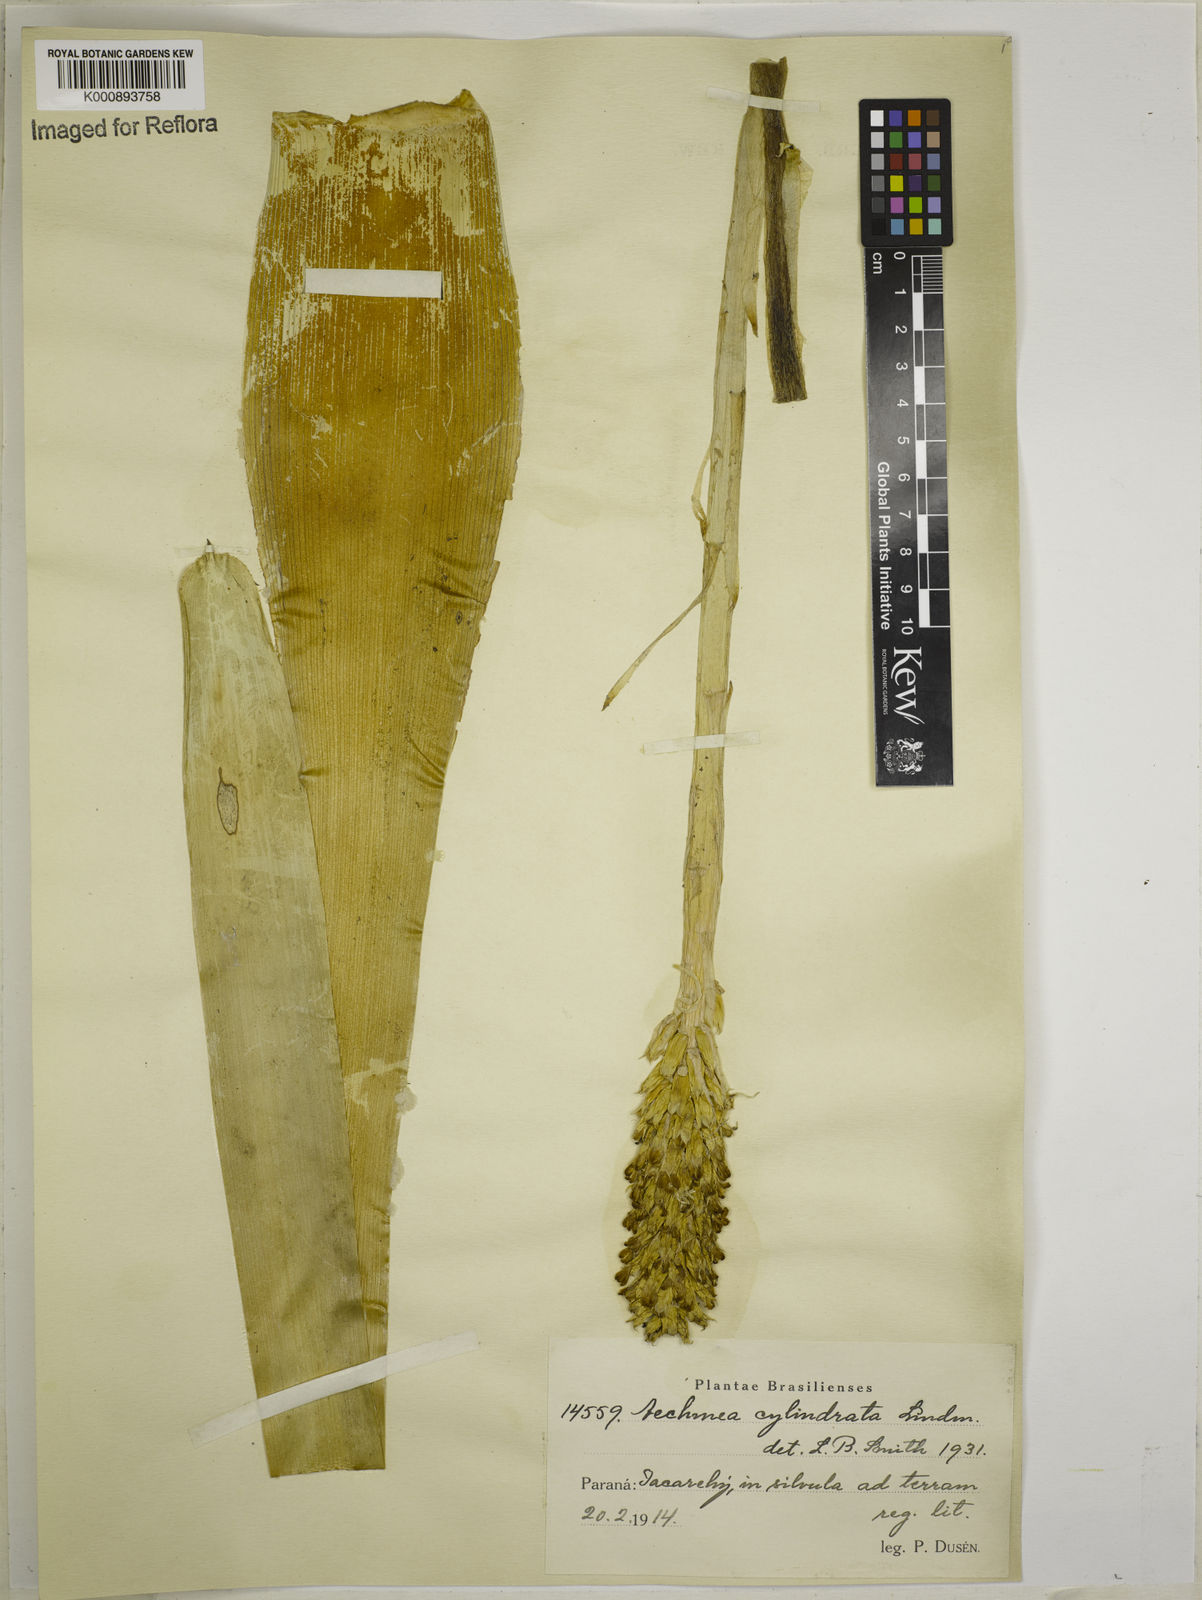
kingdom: Plantae
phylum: Tracheophyta
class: Liliopsida
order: Poales
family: Bromeliaceae
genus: Aechmea
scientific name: Aechmea cylindrata
